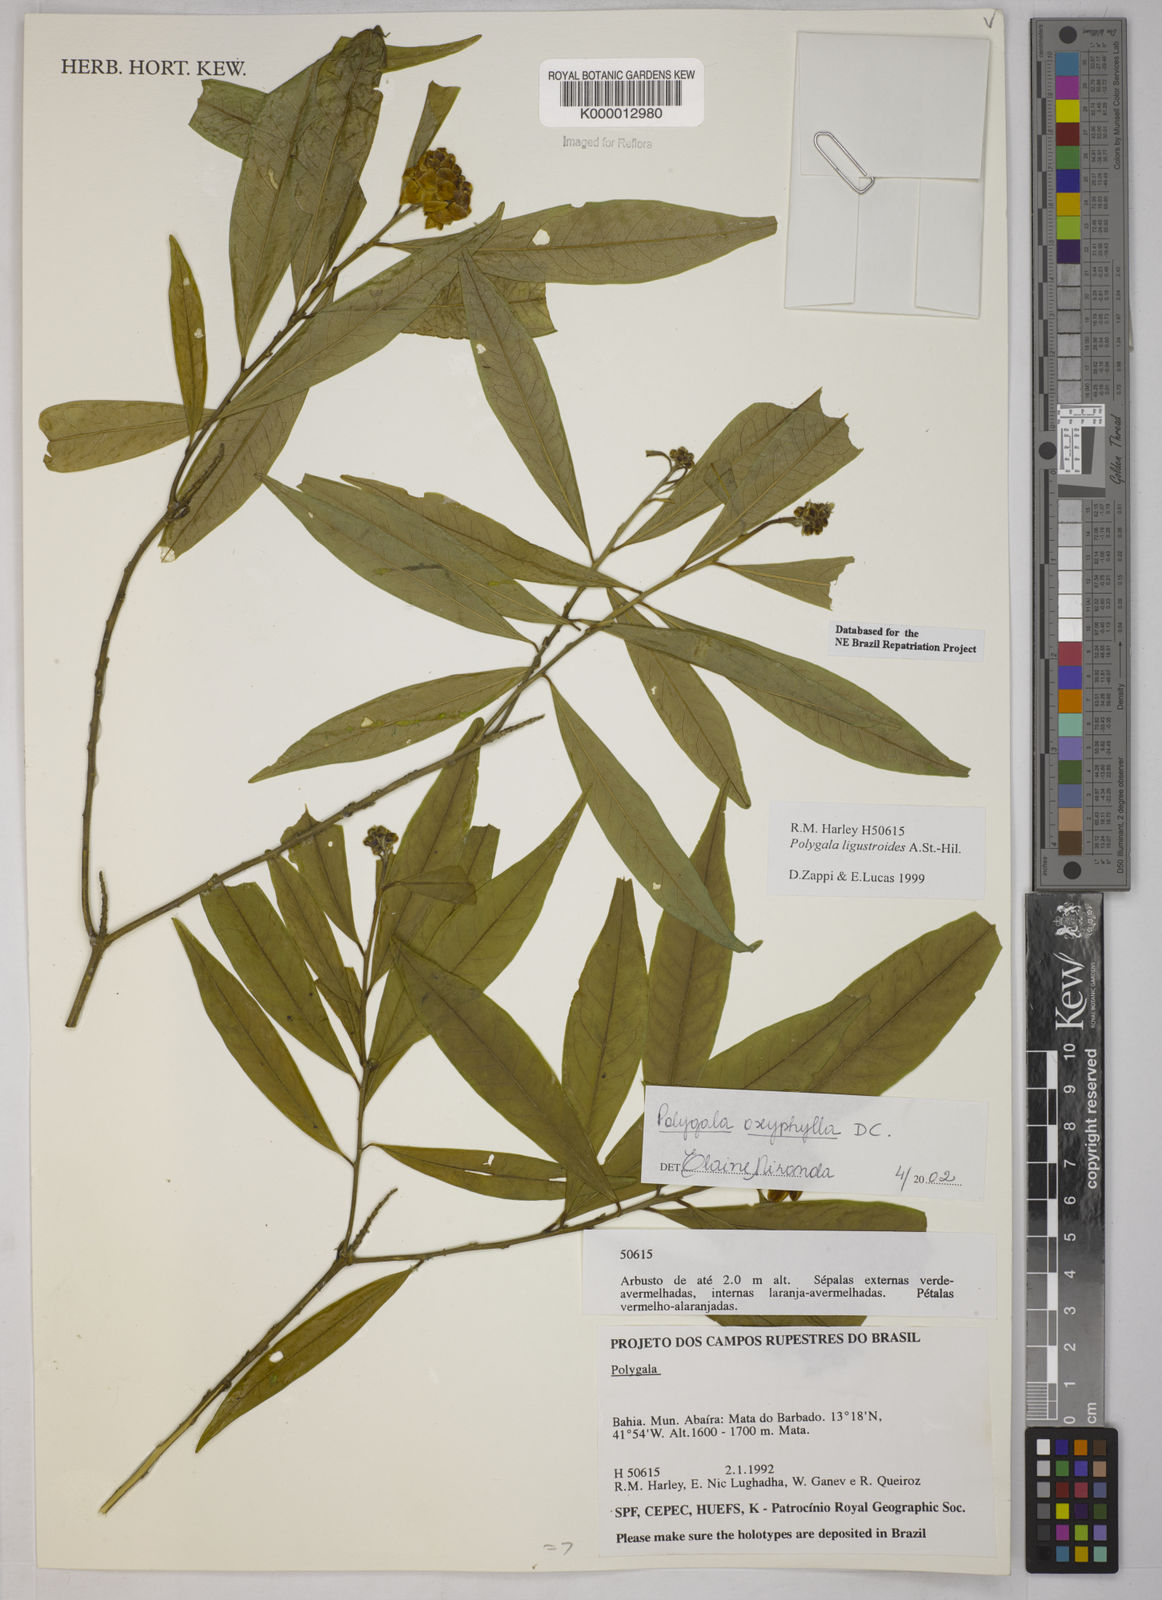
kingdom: Plantae
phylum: Tracheophyta
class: Magnoliopsida
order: Fabales
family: Polygalaceae
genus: Caamembeca
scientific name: Caamembeca oxyphylla
